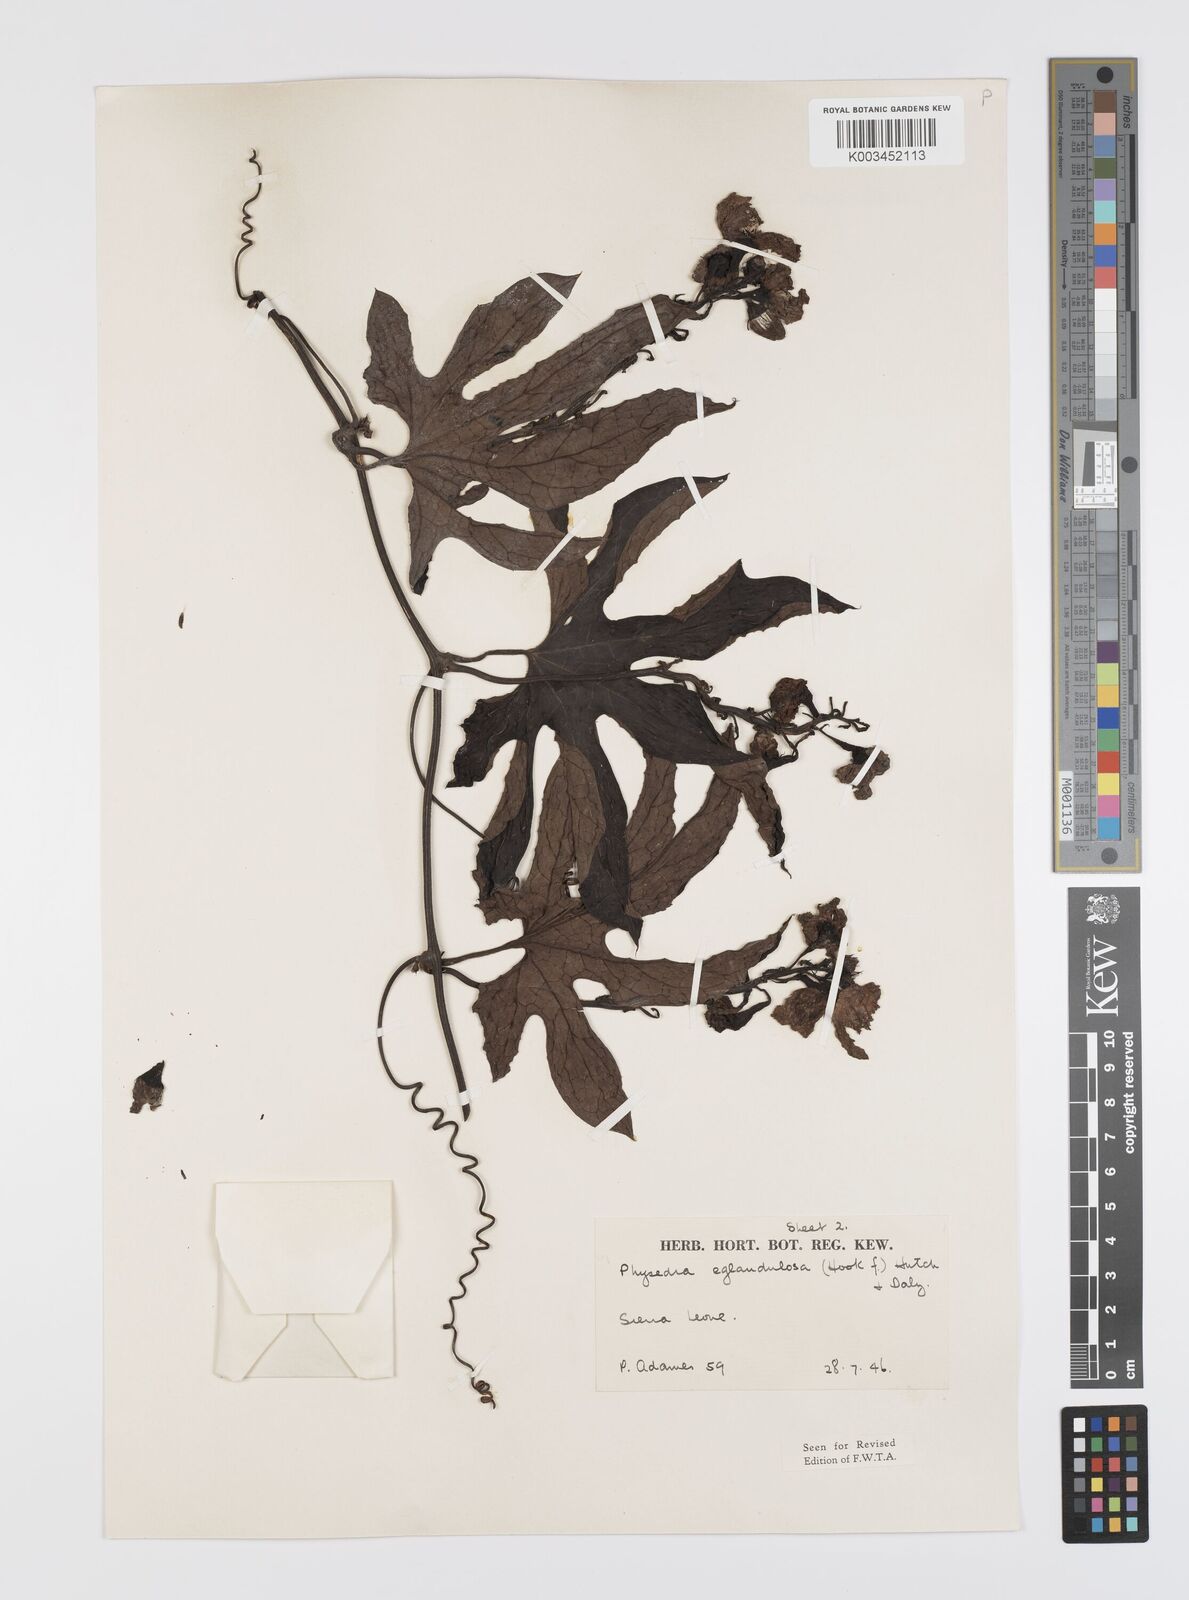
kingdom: Plantae
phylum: Tracheophyta
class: Magnoliopsida
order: Cucurbitales
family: Cucurbitaceae
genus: Ruthalicia
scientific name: Ruthalicia eglandulosa
